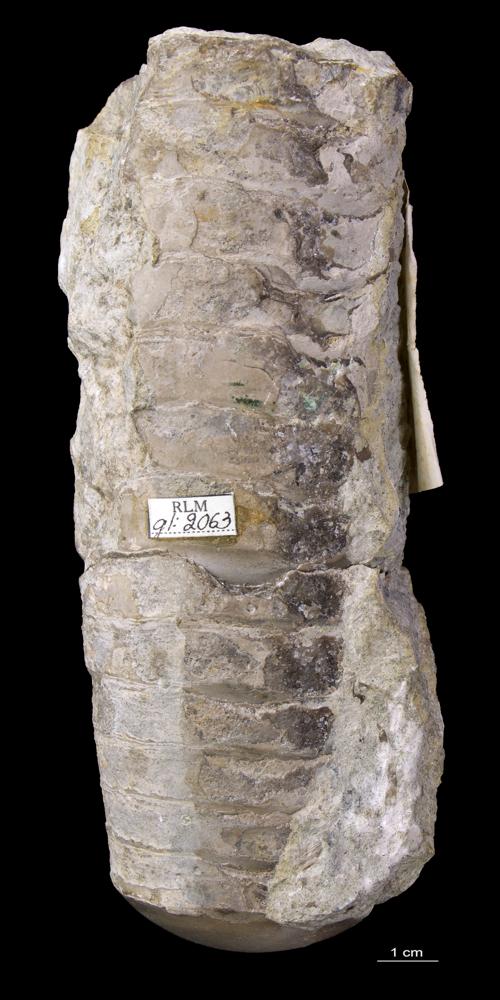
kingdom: Animalia
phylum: Mollusca
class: Cephalopoda
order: Orthocerida
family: Orthoceratidae
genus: Orthoceras
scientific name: Orthoceras
